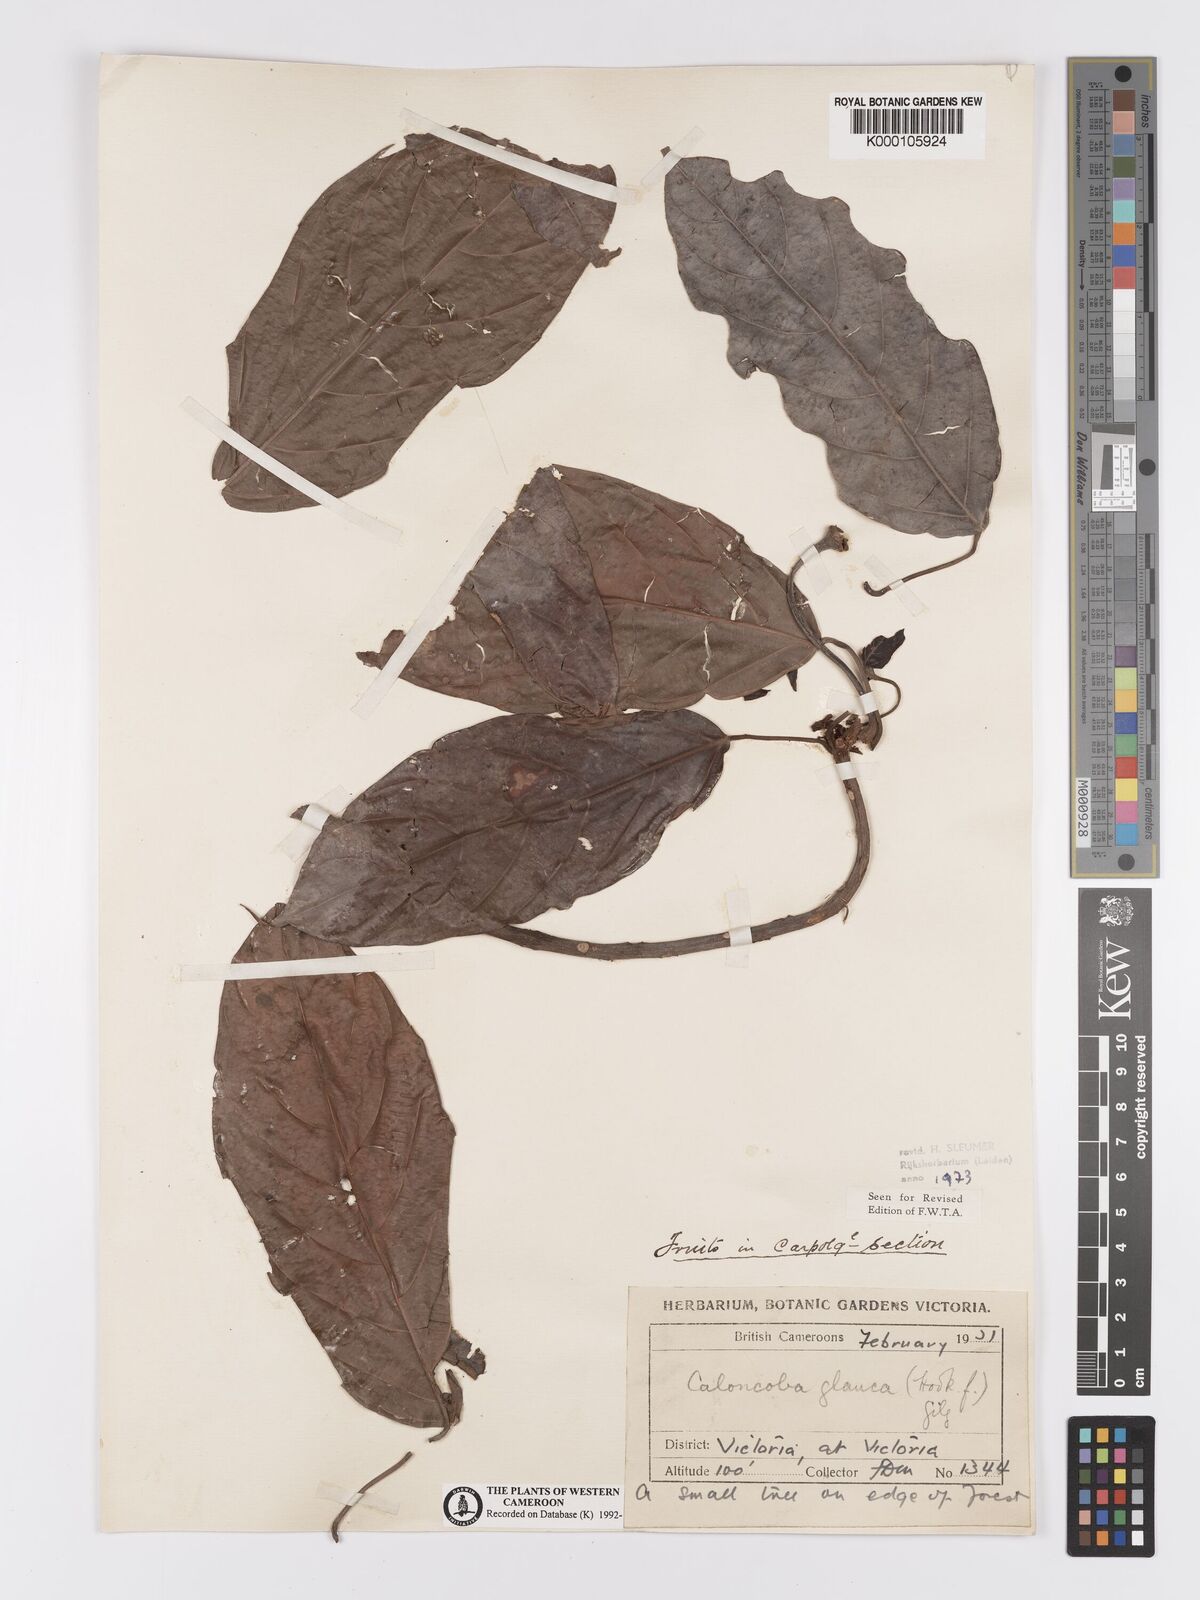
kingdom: Plantae
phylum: Tracheophyta
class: Magnoliopsida
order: Malpighiales
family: Achariaceae
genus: Caloncoba
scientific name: Caloncoba glauca
